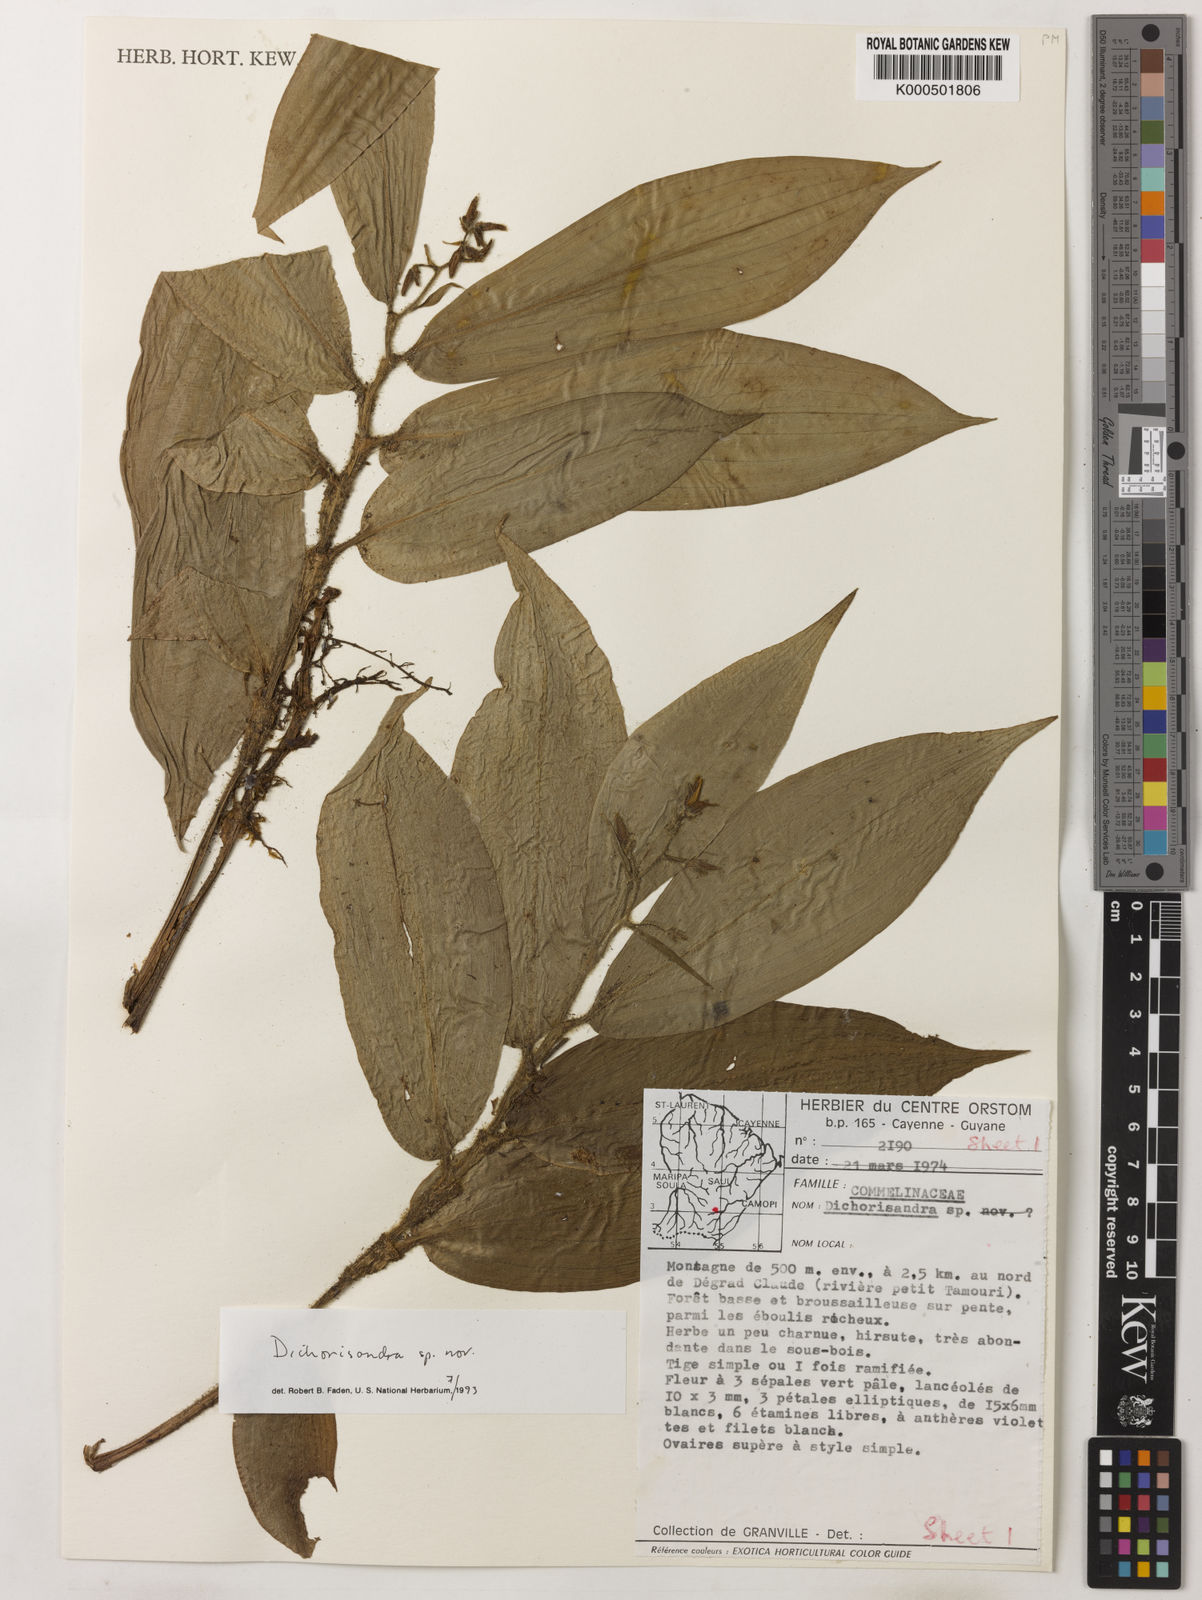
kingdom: Plantae
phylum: Tracheophyta
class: Liliopsida
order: Commelinales
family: Commelinaceae
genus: Dichorisandra
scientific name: Dichorisandra
